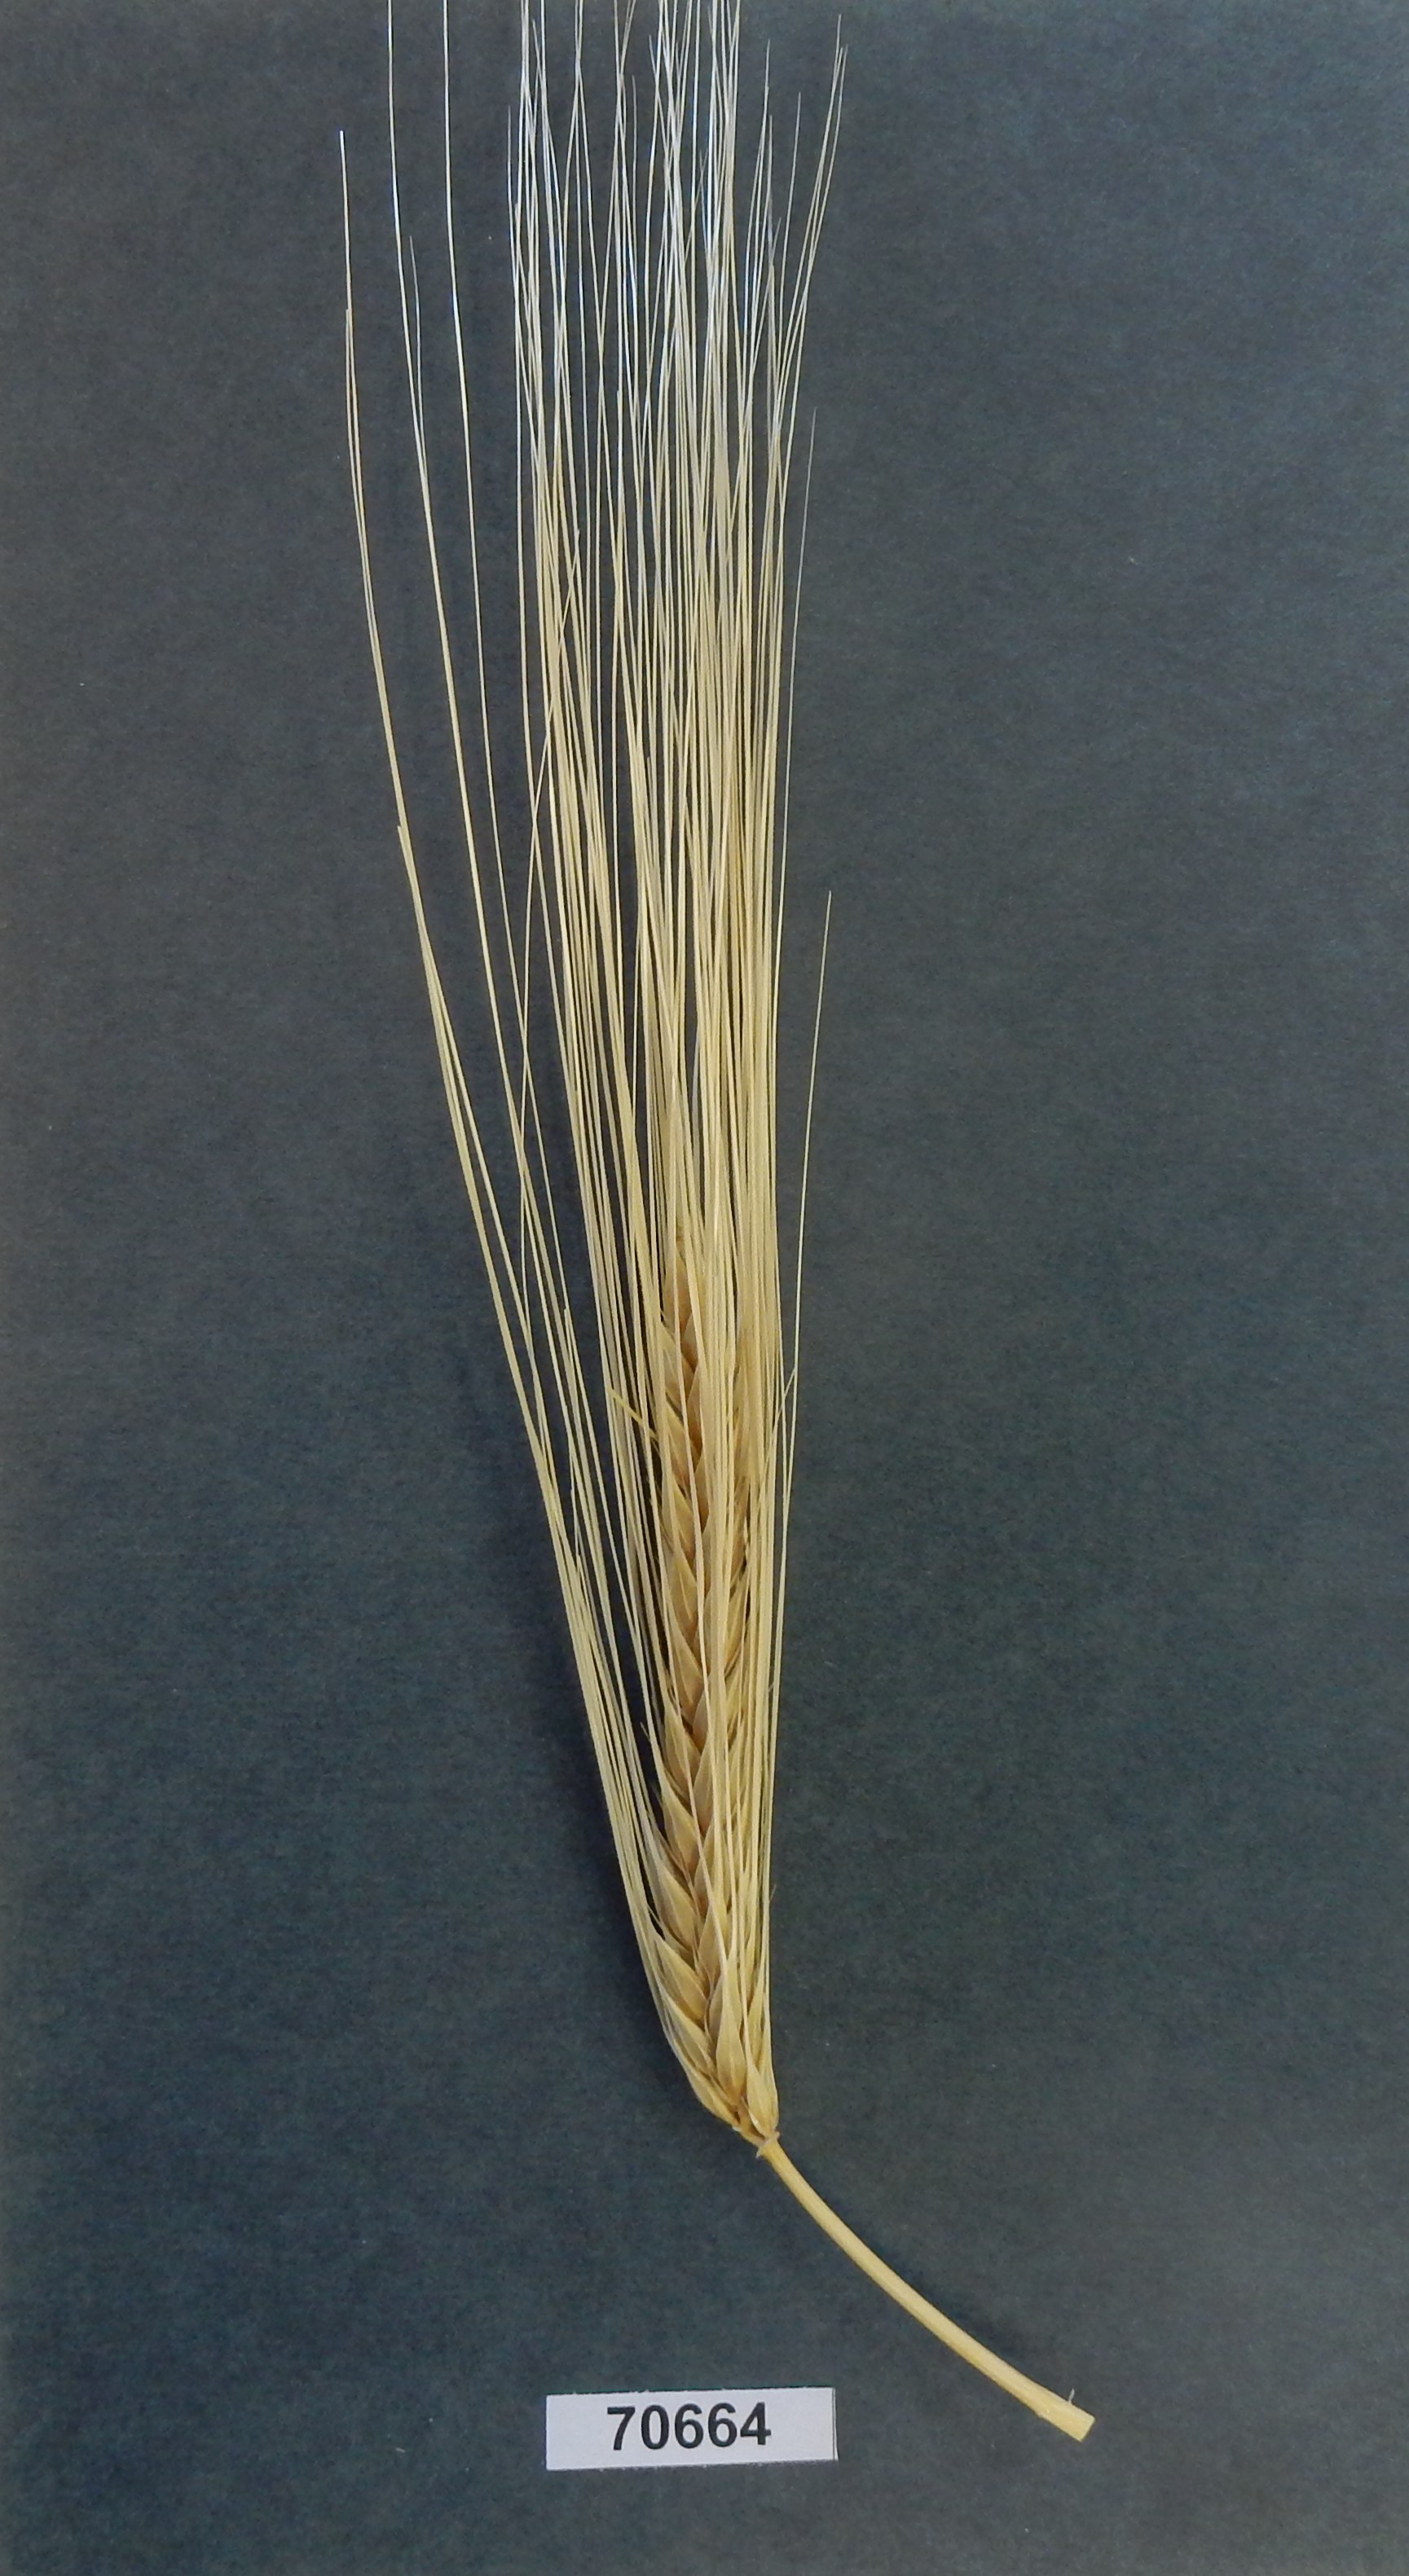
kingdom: Plantae
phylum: Tracheophyta
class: Liliopsida
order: Poales
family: Poaceae
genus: Hordeum
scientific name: Hordeum
